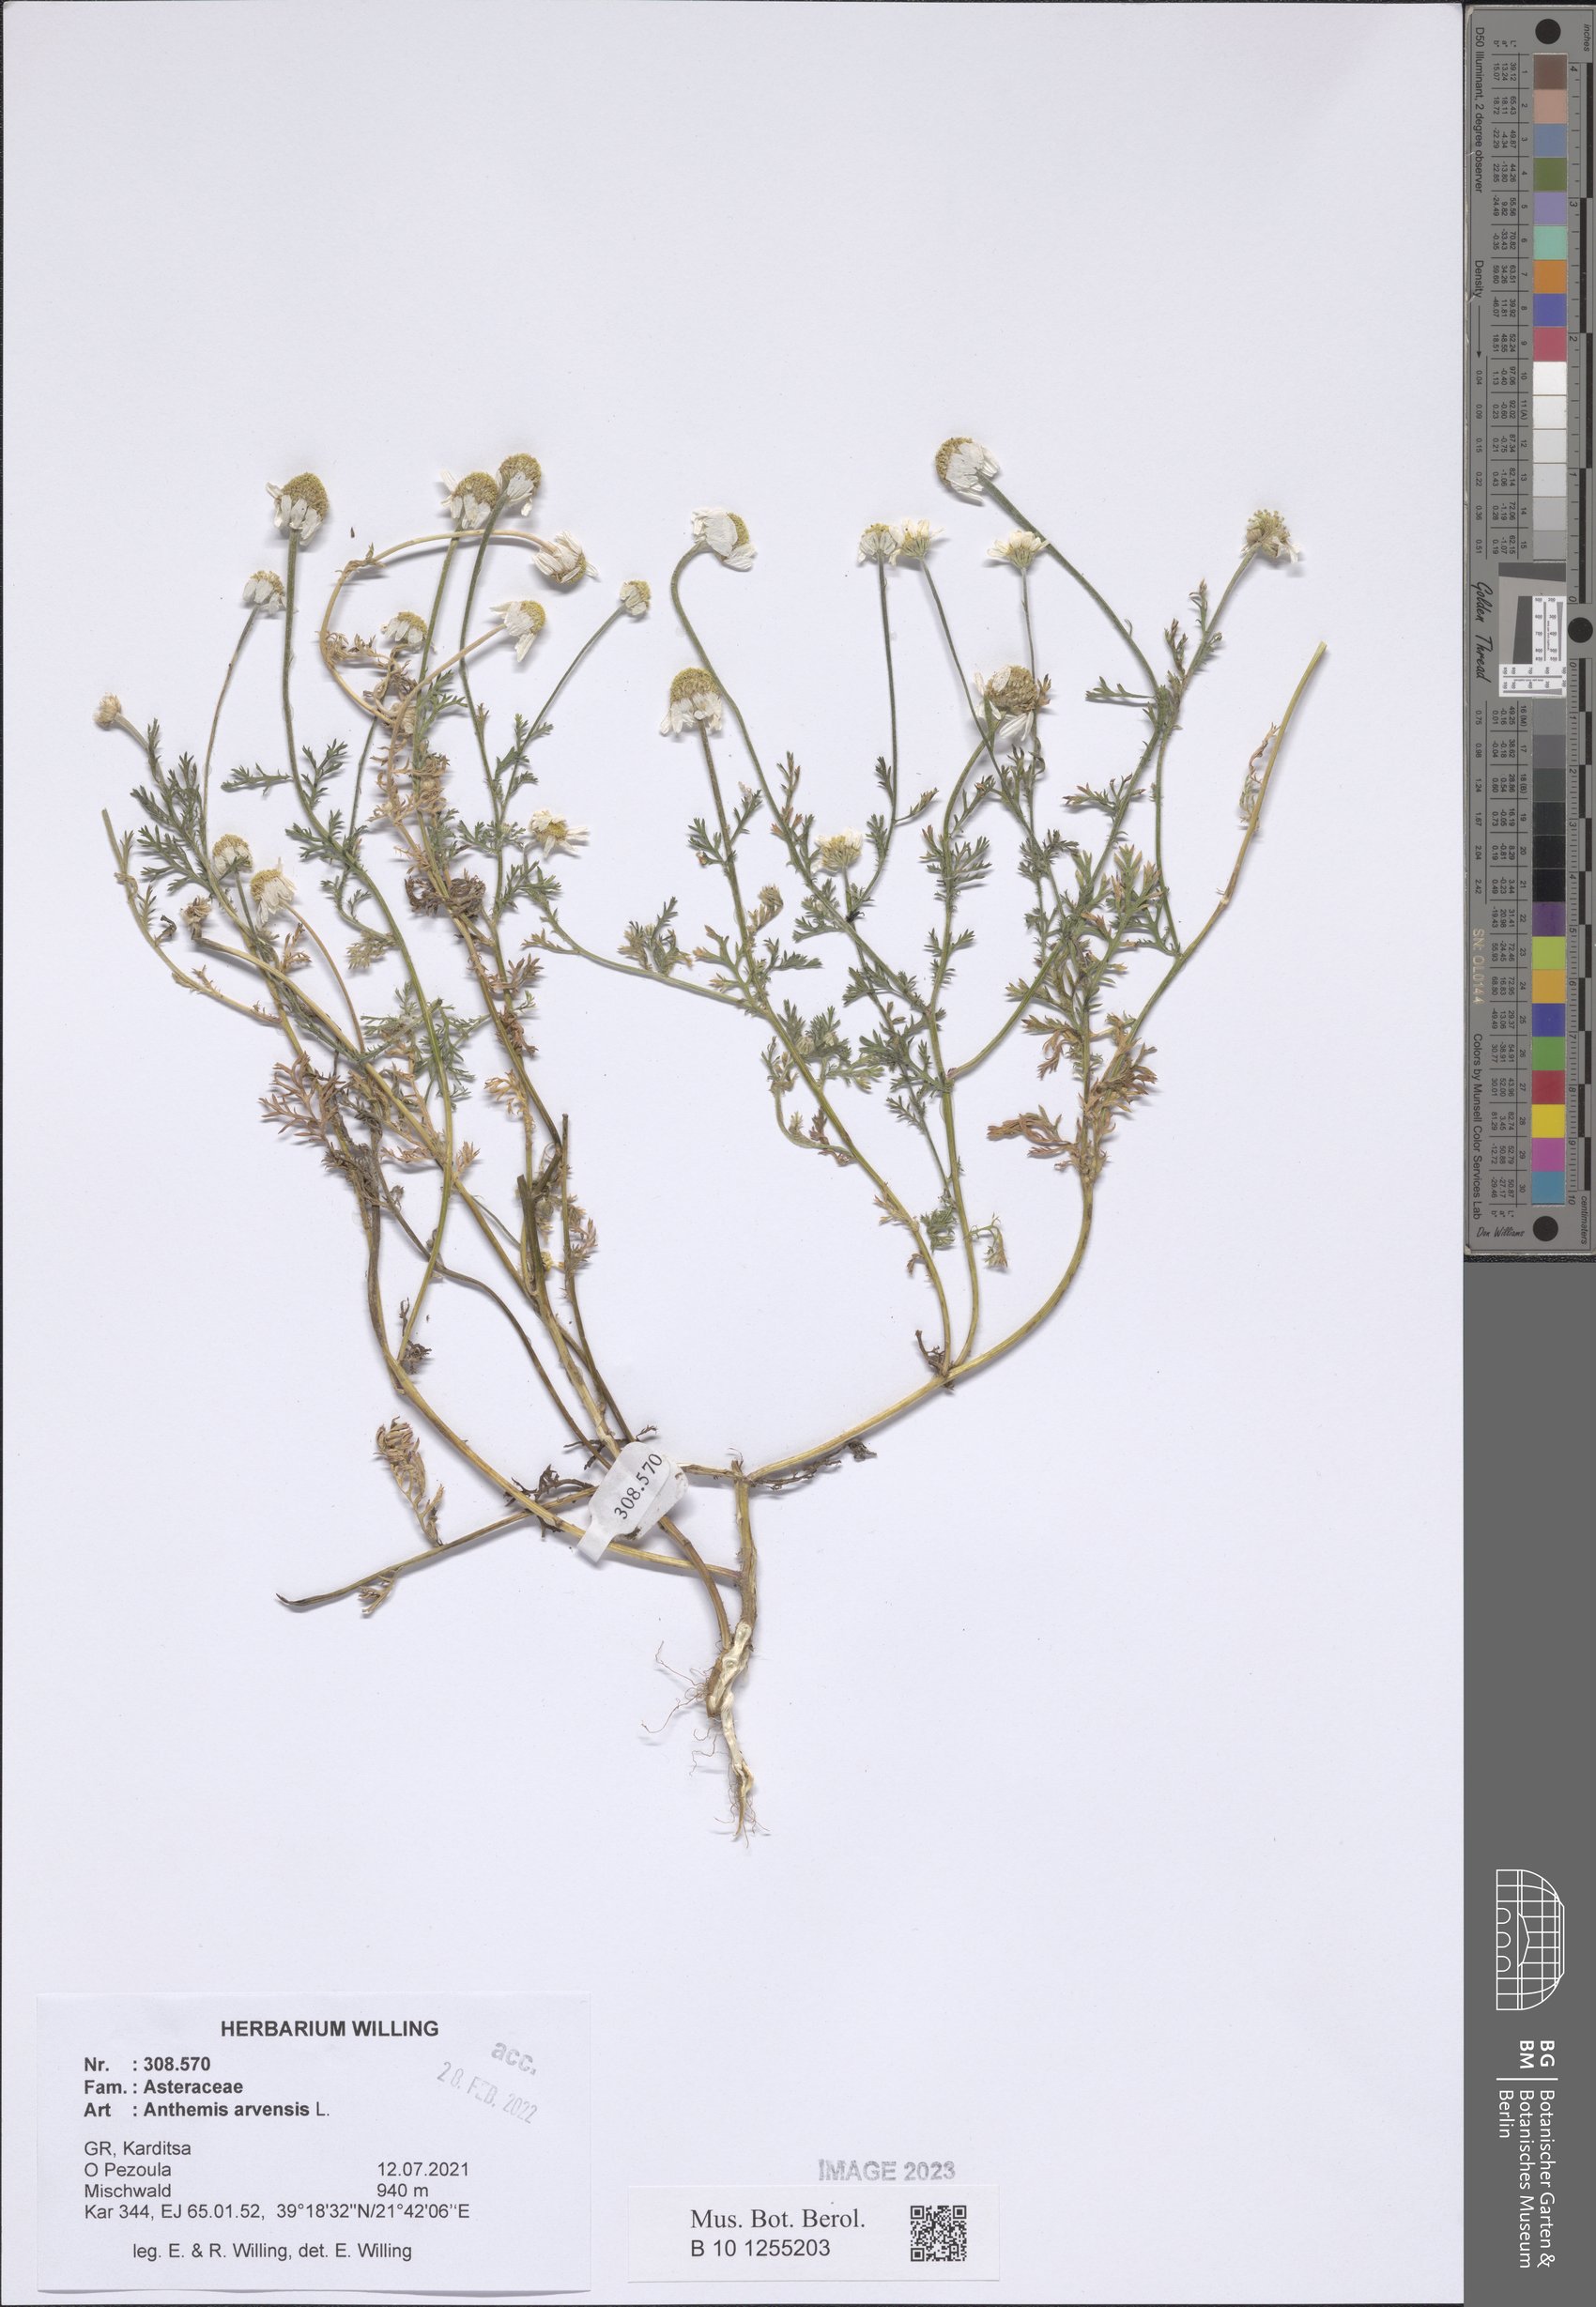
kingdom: Plantae
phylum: Tracheophyta
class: Magnoliopsida
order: Asterales
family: Asteraceae
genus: Anthemis
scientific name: Anthemis arvensis
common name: Corn chamomile
